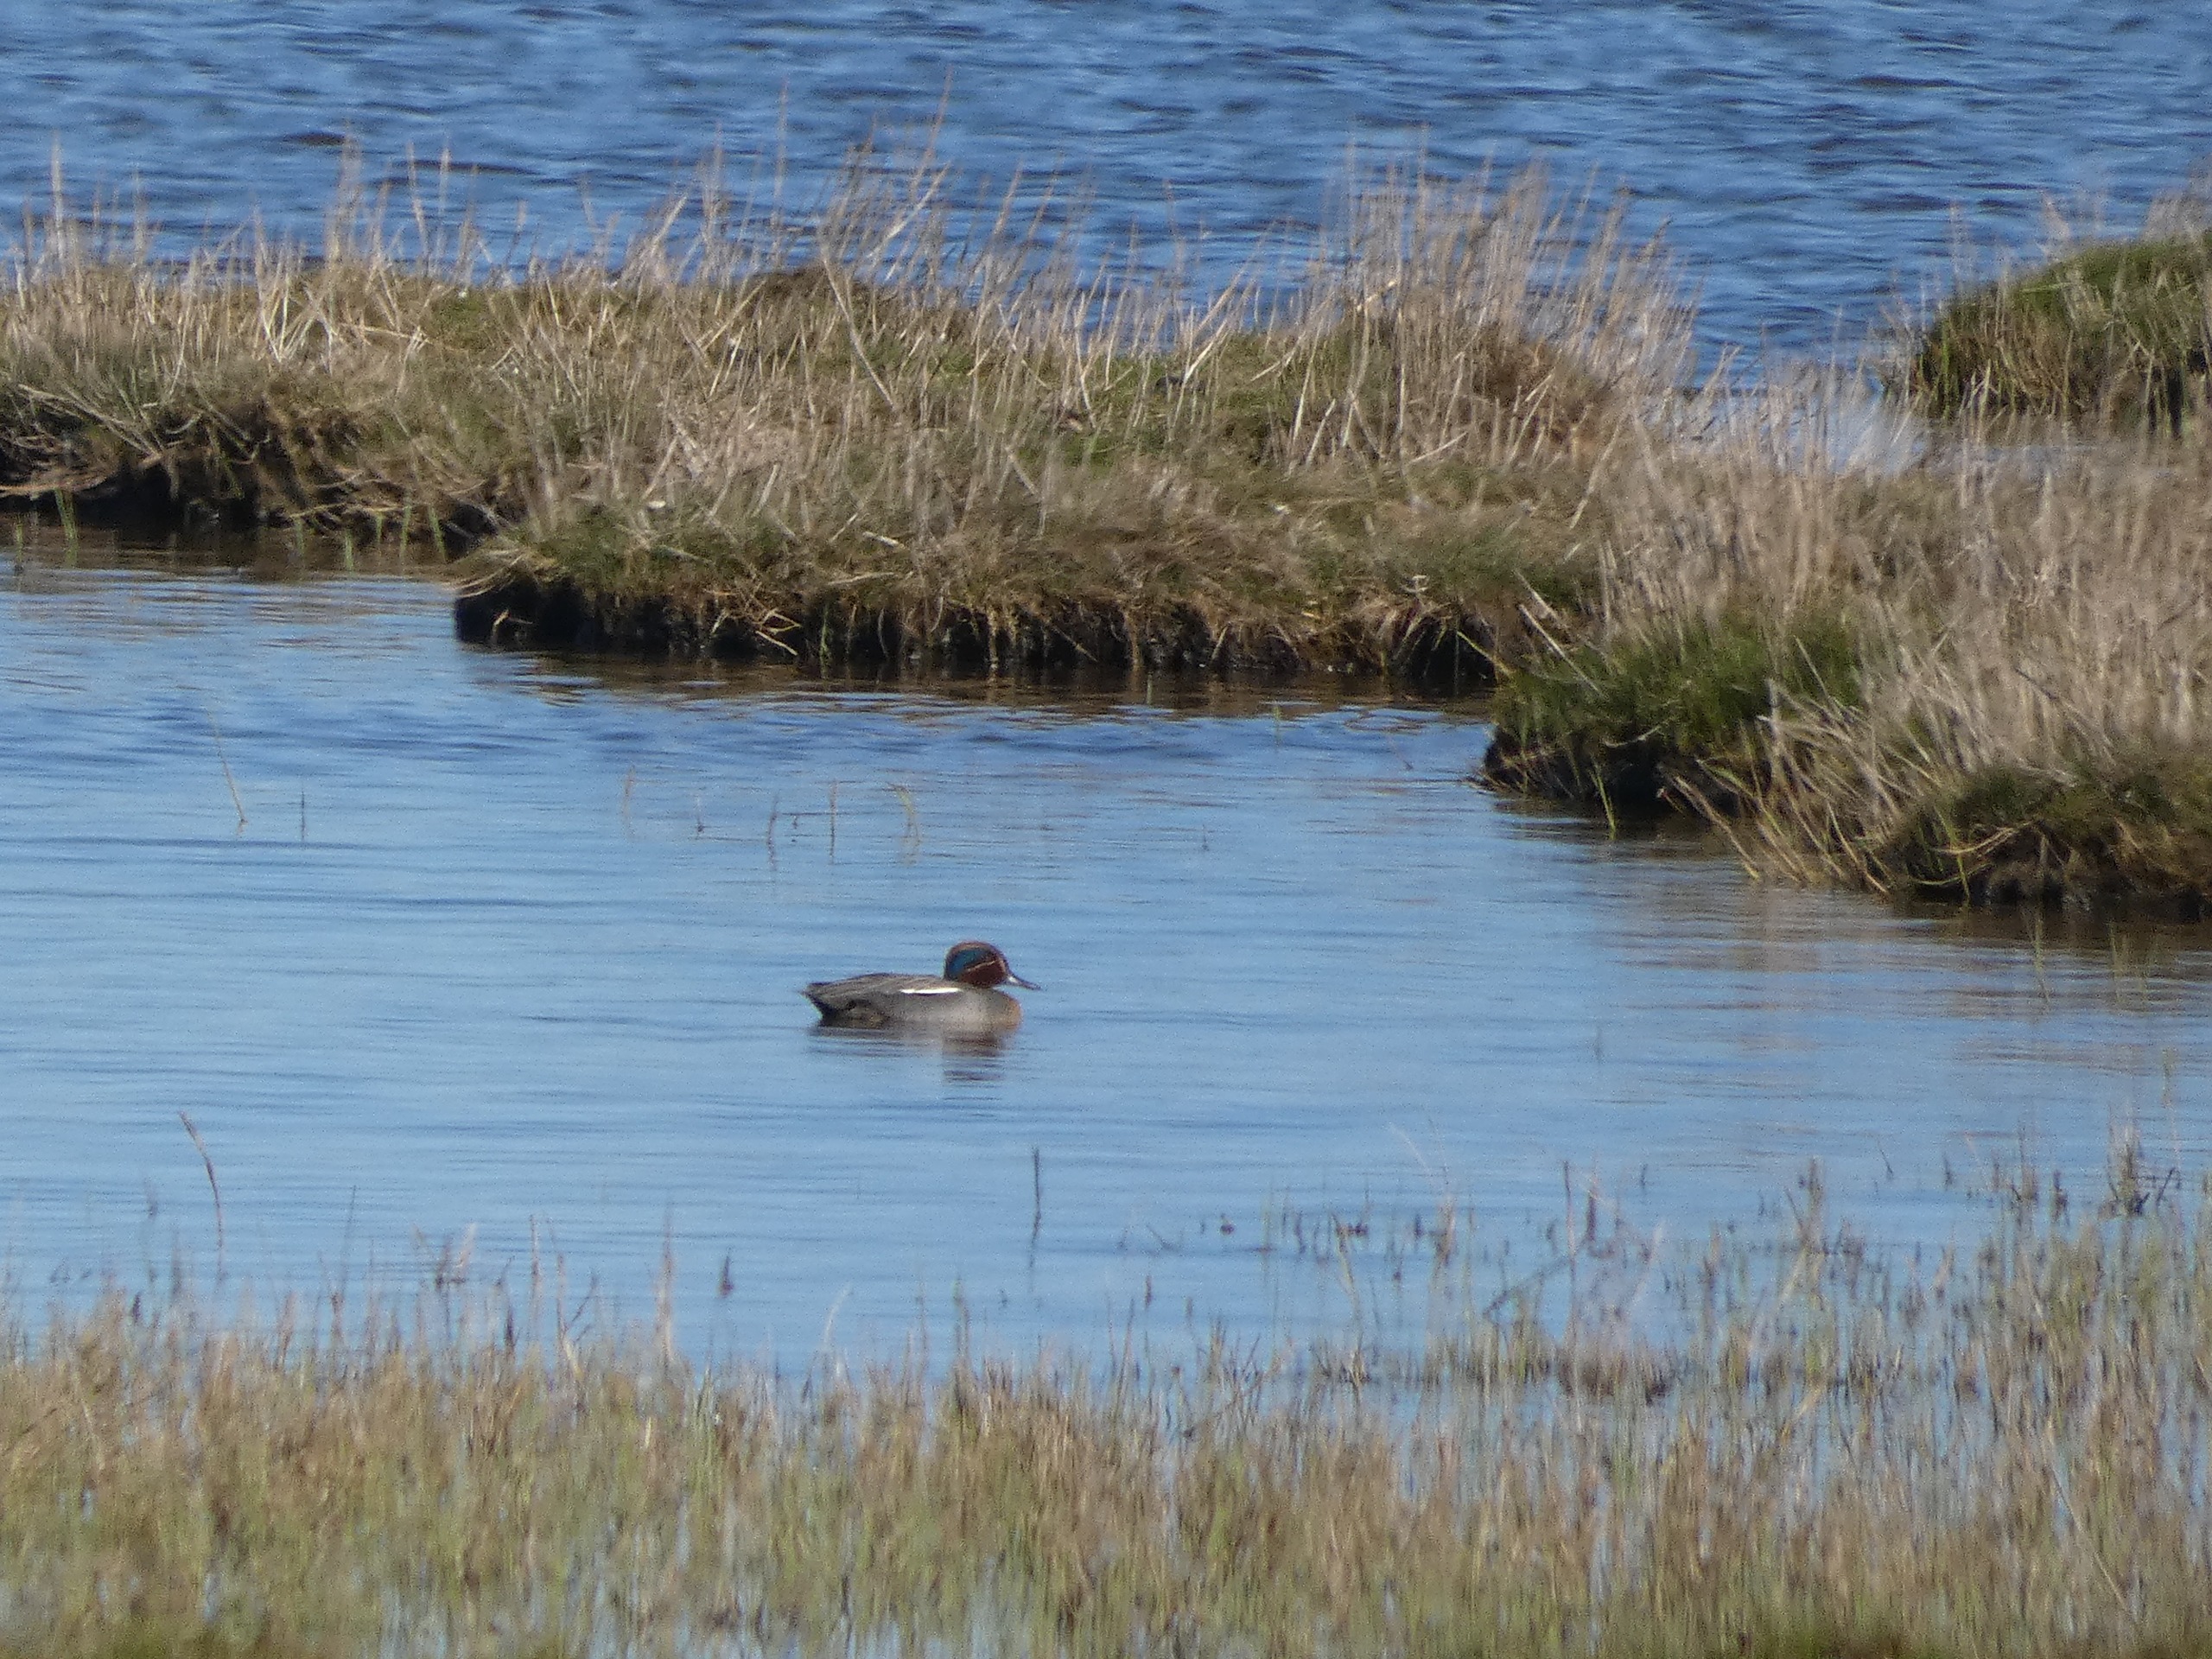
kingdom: Animalia
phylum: Chordata
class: Aves
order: Anseriformes
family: Anatidae
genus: Anas
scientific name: Anas crecca
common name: Krikand
